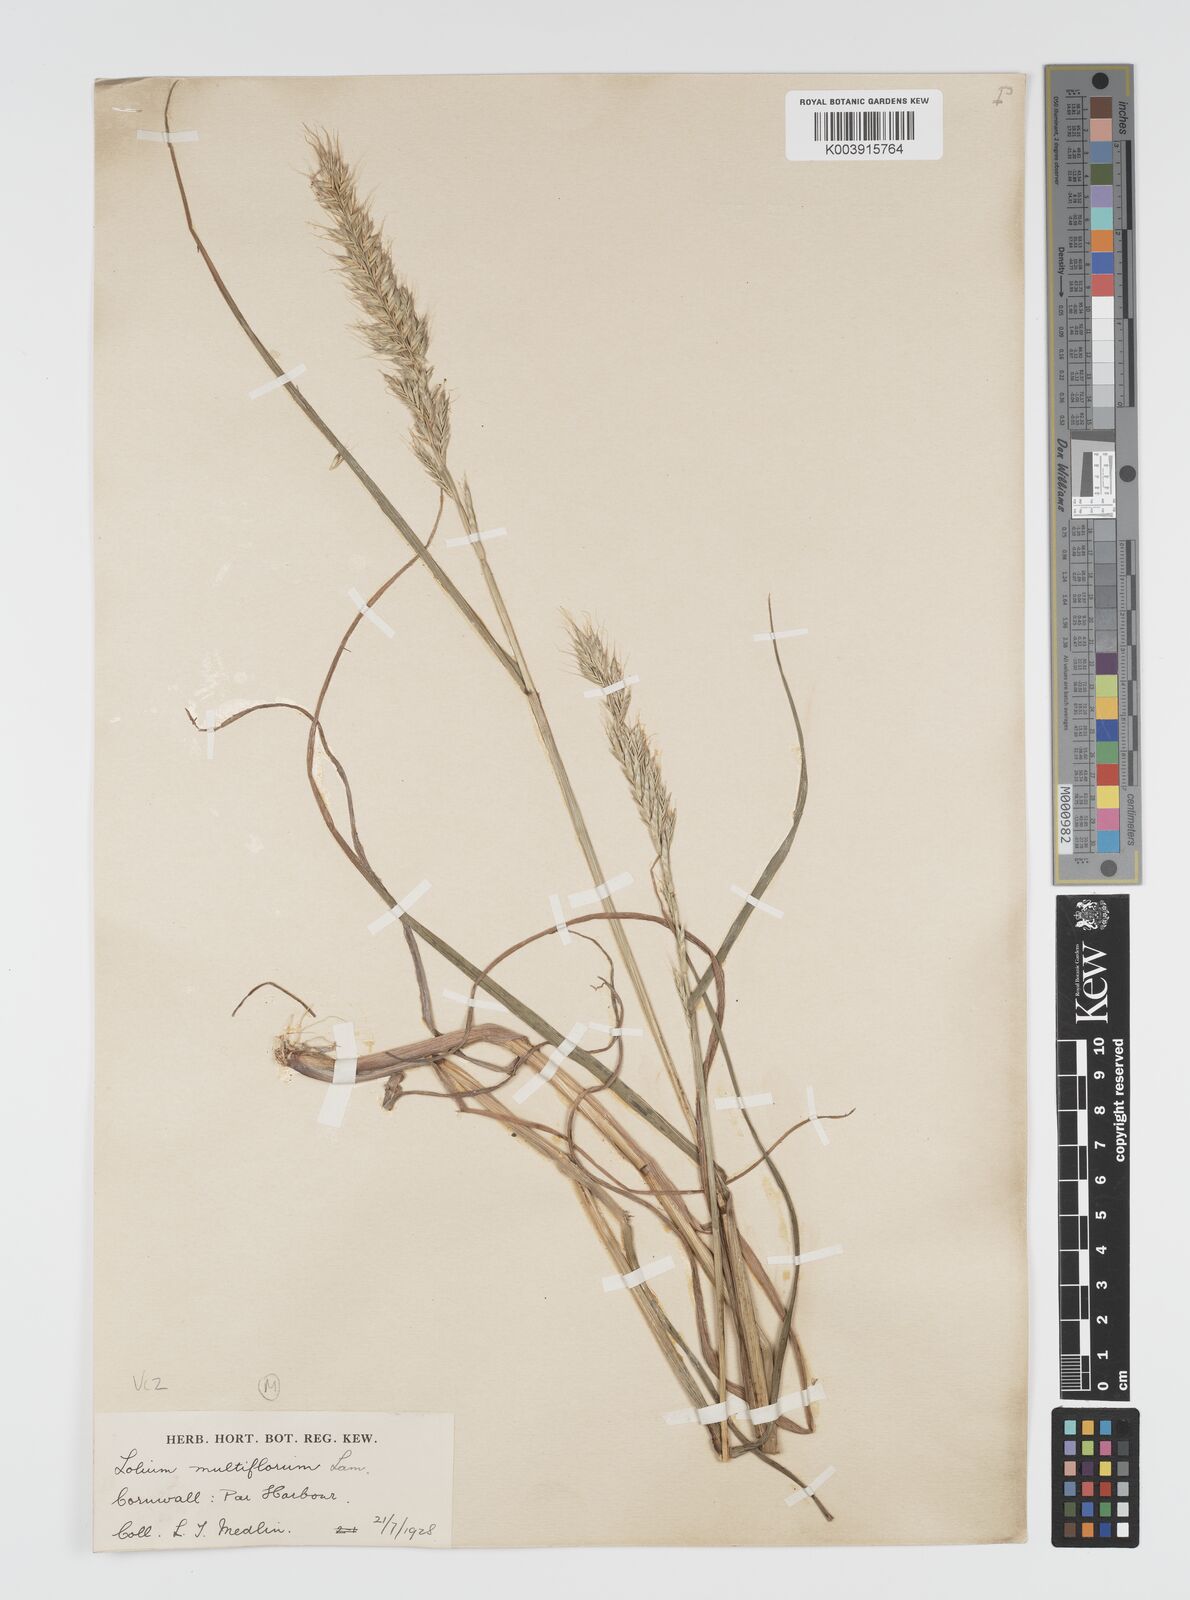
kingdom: Plantae
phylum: Tracheophyta
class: Liliopsida
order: Poales
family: Poaceae
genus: Lolium
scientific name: Lolium multiflorum
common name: Annual ryegrass
